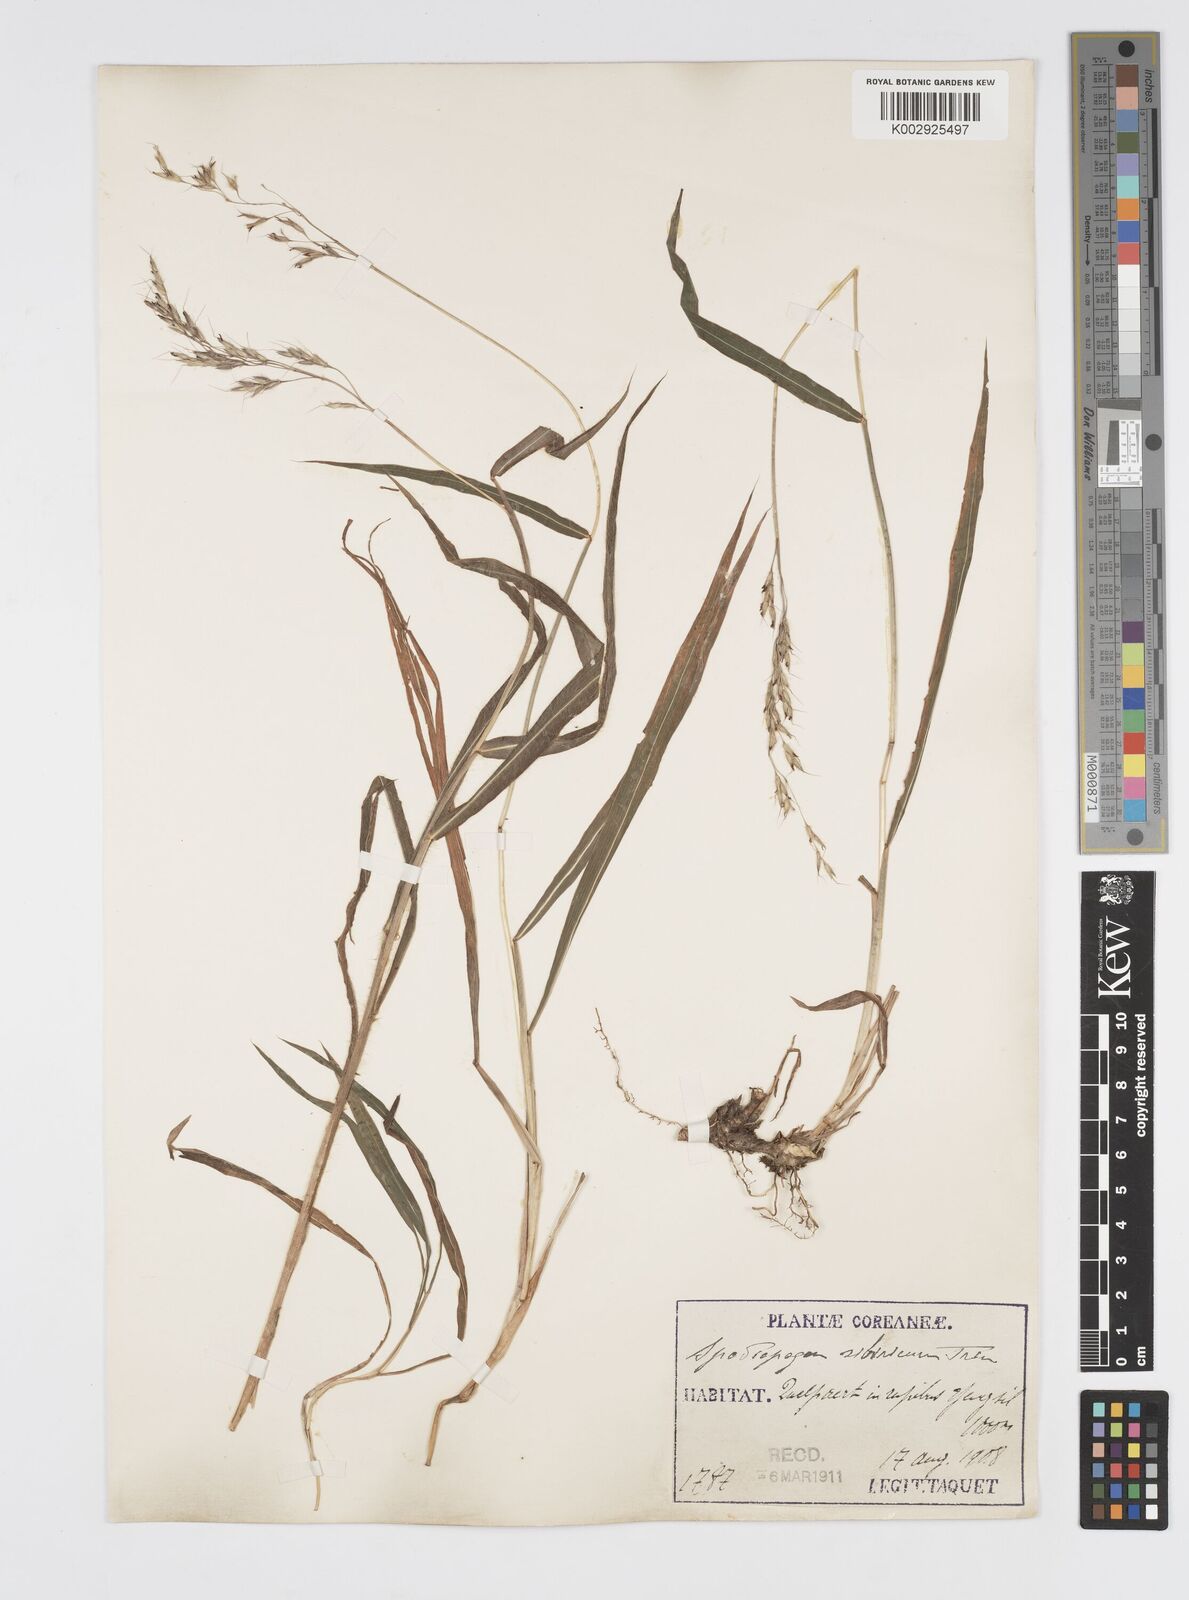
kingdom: Plantae
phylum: Tracheophyta
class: Liliopsida
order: Poales
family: Poaceae
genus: Spodiopogon
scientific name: Spodiopogon sibiricus
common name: Siberian graybeard
